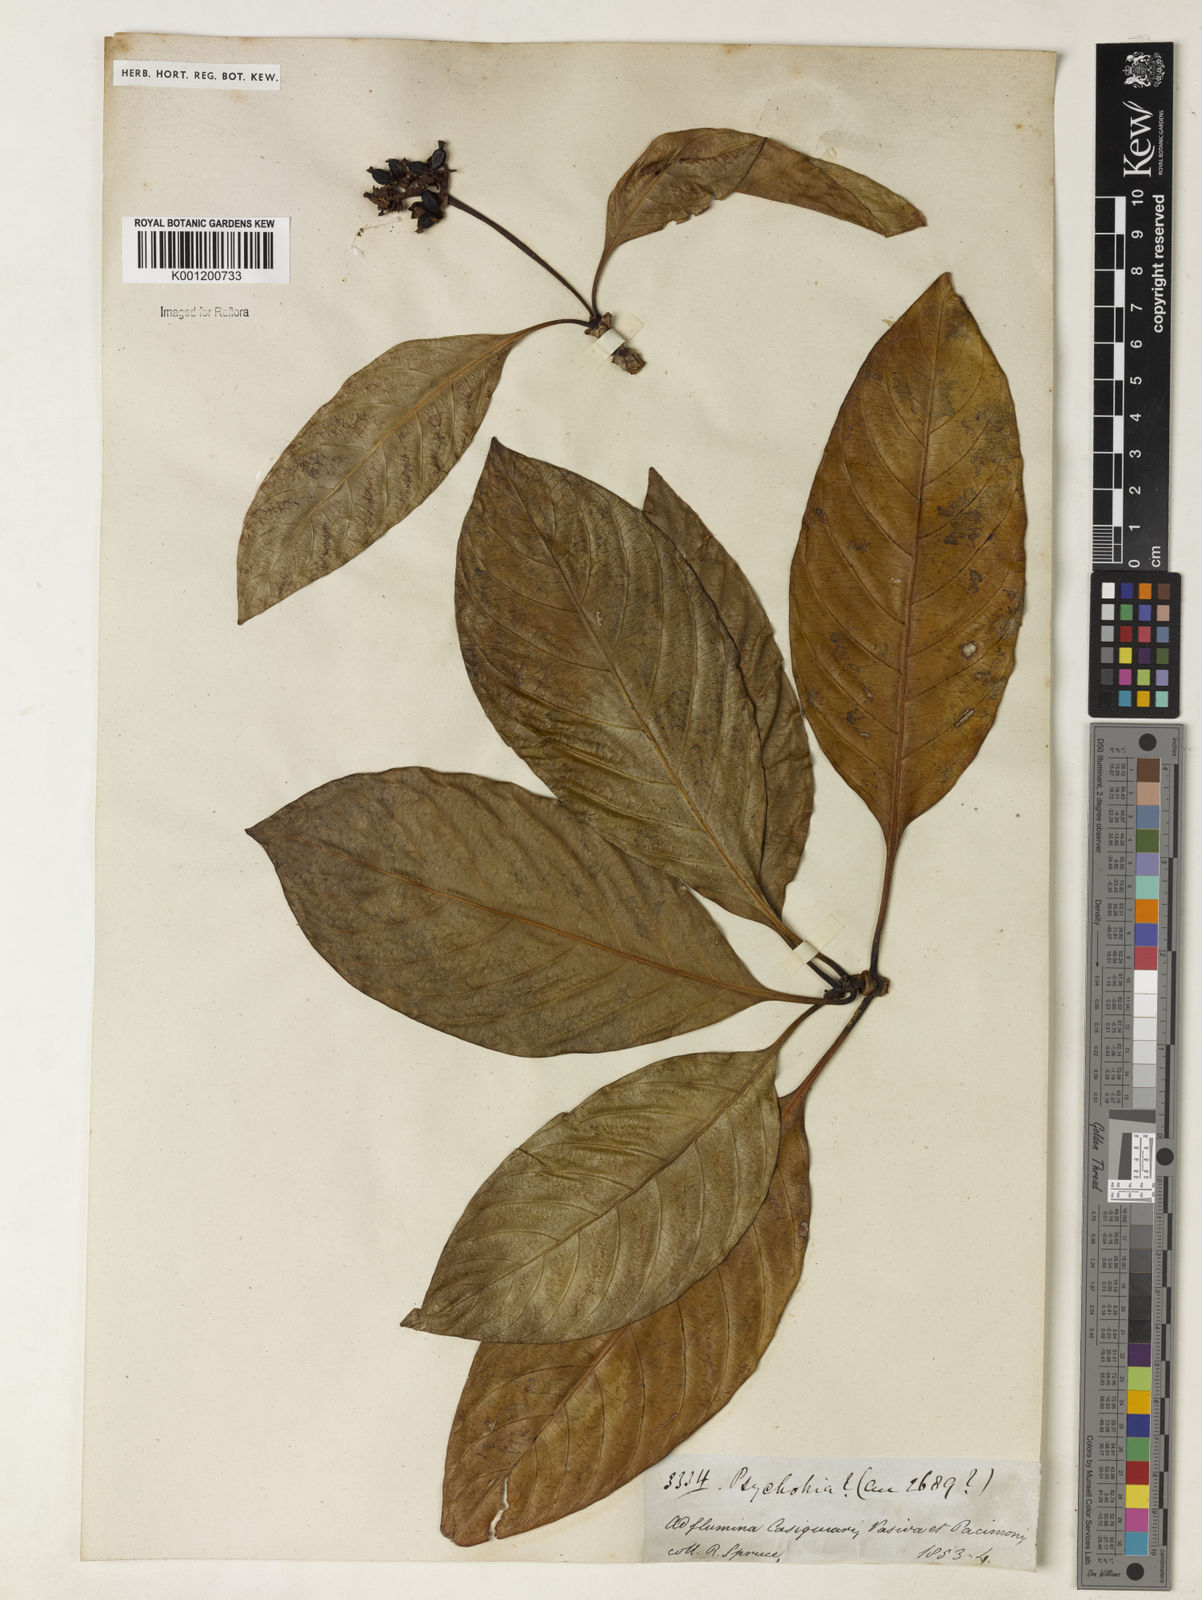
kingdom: Plantae
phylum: Tracheophyta
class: Magnoliopsida
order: Gentianales
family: Rubiaceae
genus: Psychotria
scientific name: Psychotria
